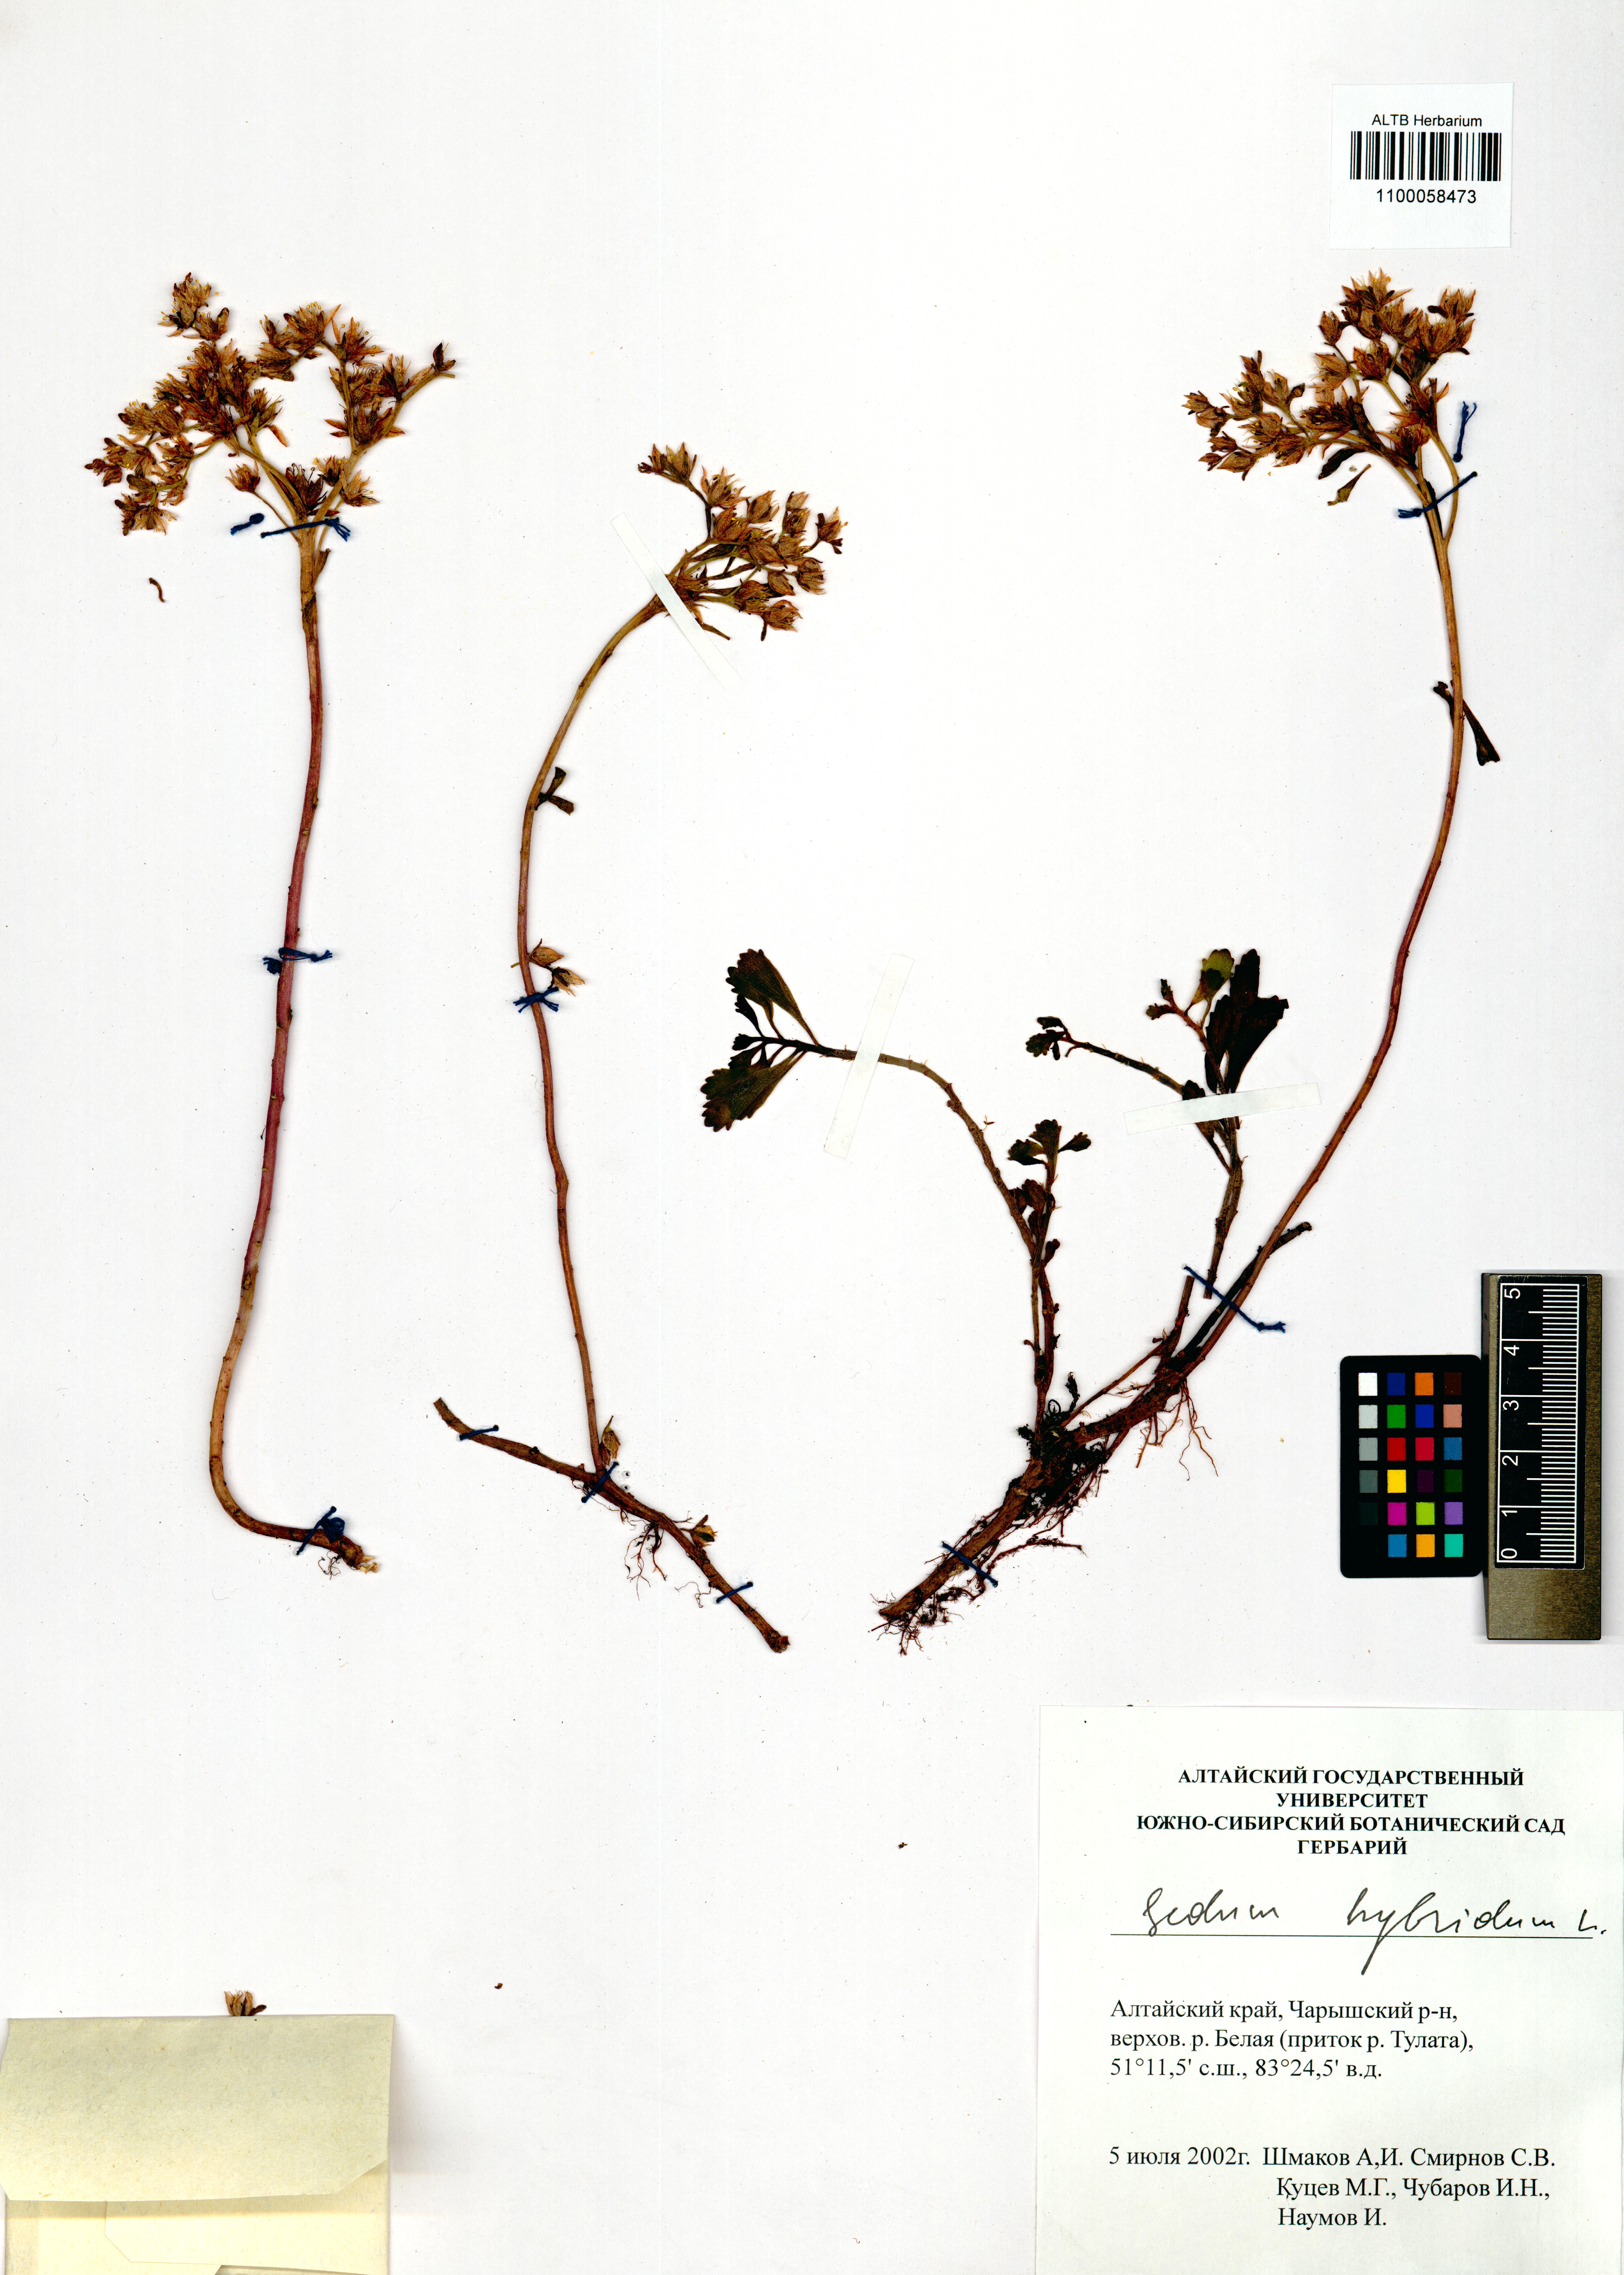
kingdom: Plantae
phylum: Tracheophyta
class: Magnoliopsida
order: Saxifragales
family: Crassulaceae
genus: Phedimus
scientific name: Phedimus hybridus
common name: Hybrid stonecrop
